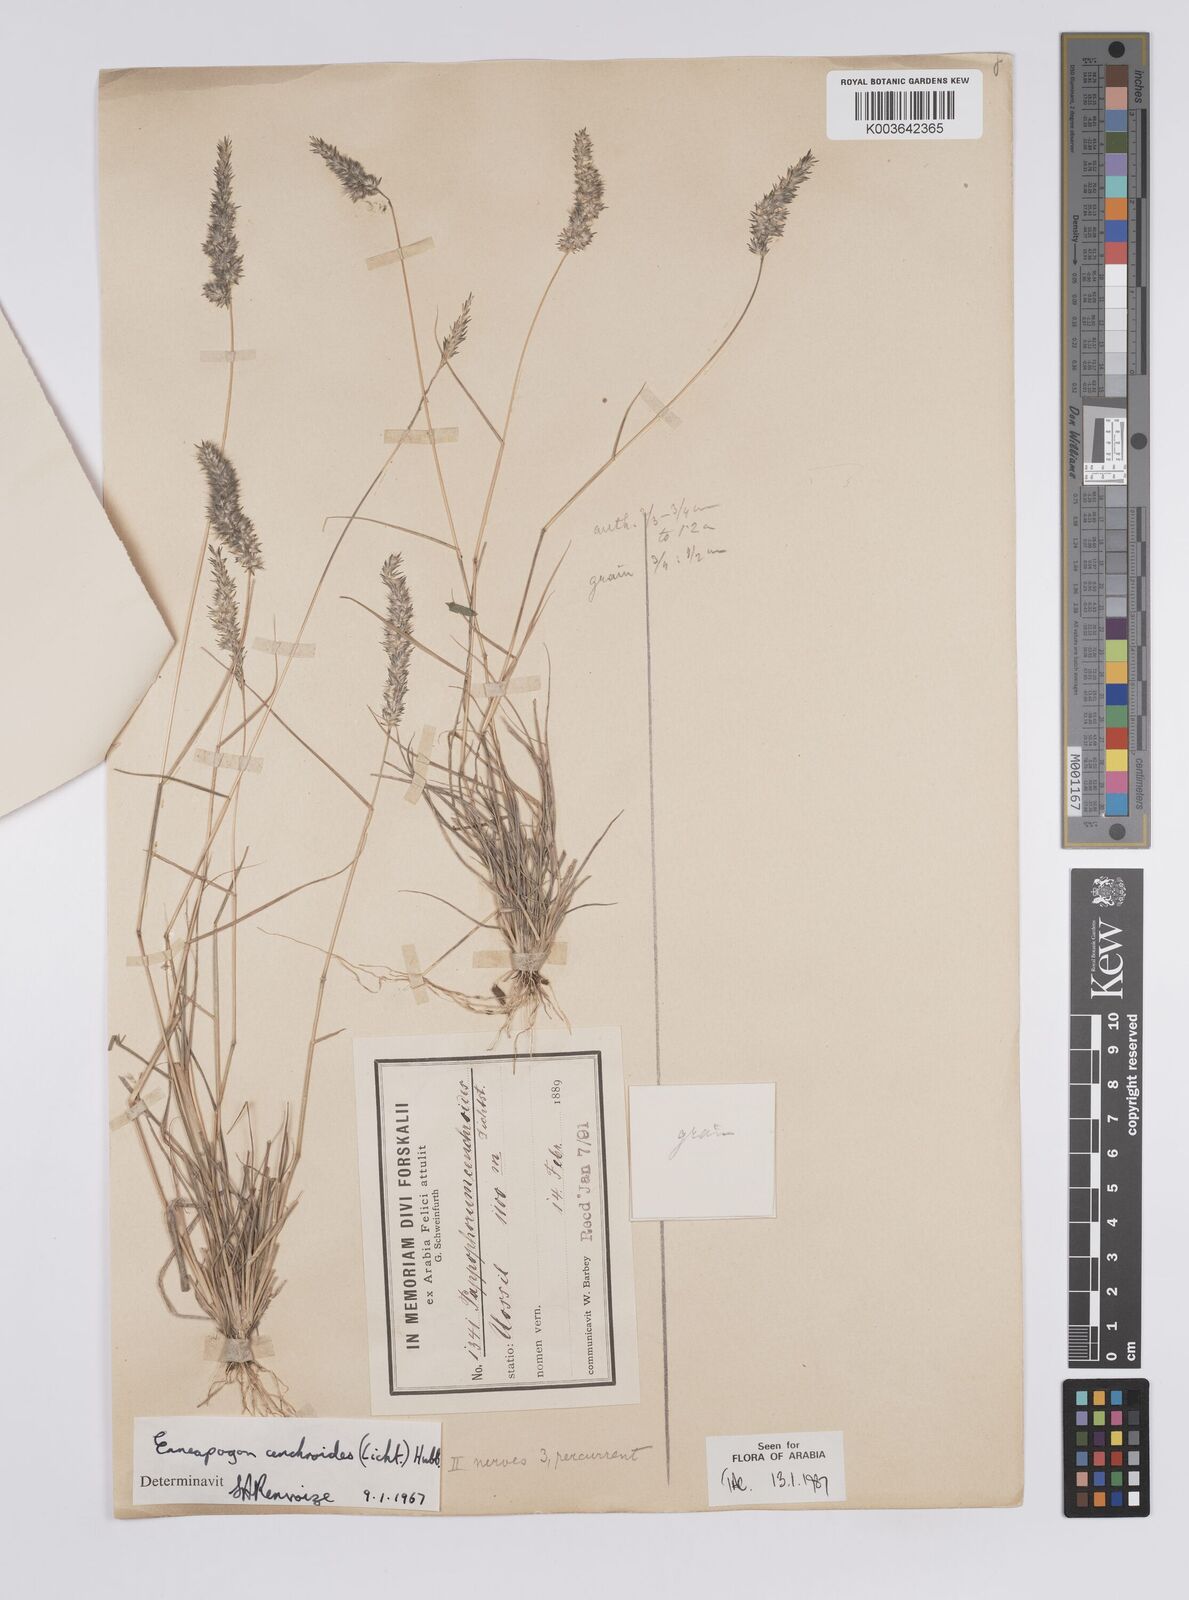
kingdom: Plantae
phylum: Tracheophyta
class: Liliopsida
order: Poales
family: Poaceae
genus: Enneapogon
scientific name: Enneapogon cenchroides
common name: Soft feather pappusgrass
